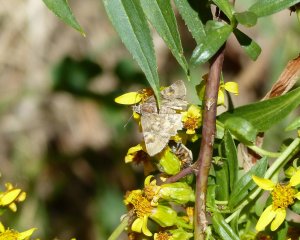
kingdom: Animalia
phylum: Arthropoda
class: Insecta
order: Lepidoptera
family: Hesperiidae
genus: Systasea
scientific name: Systasea zampa
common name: Arizona Powdered-Skipper
